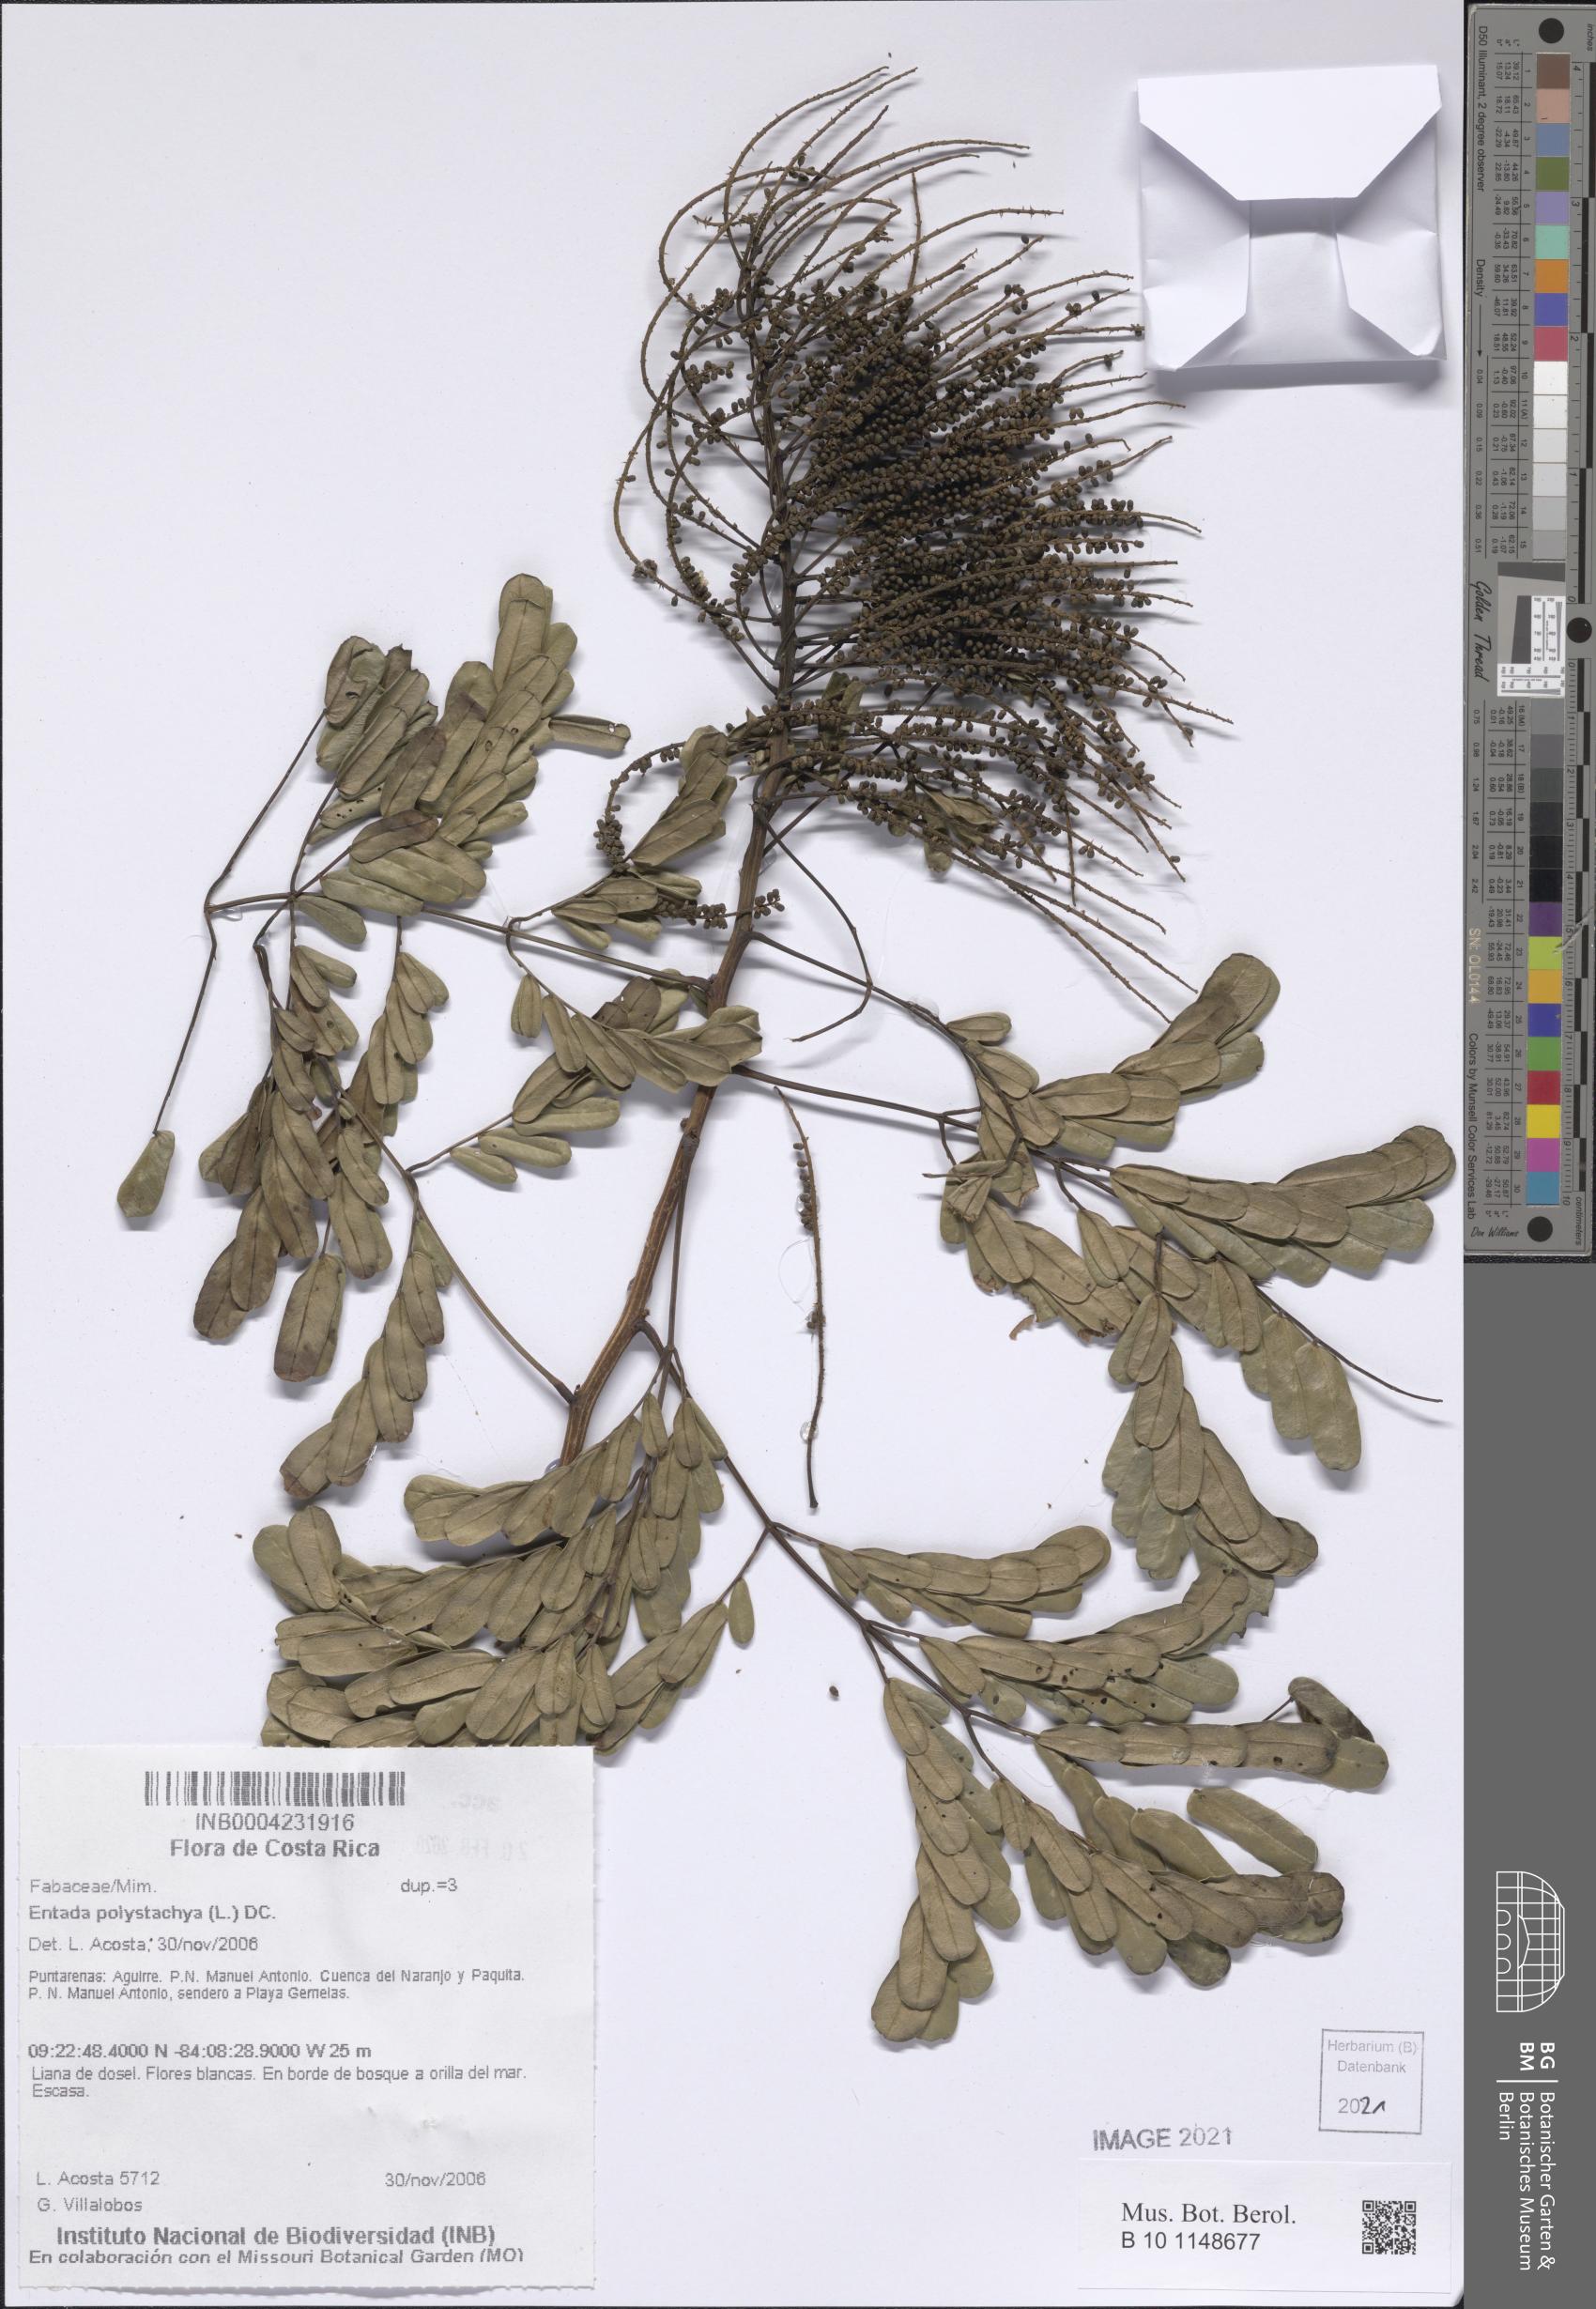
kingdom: Plantae
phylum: Tracheophyta
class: Magnoliopsida
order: Fabales
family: Fabaceae
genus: Entada
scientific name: Entada polystachya
